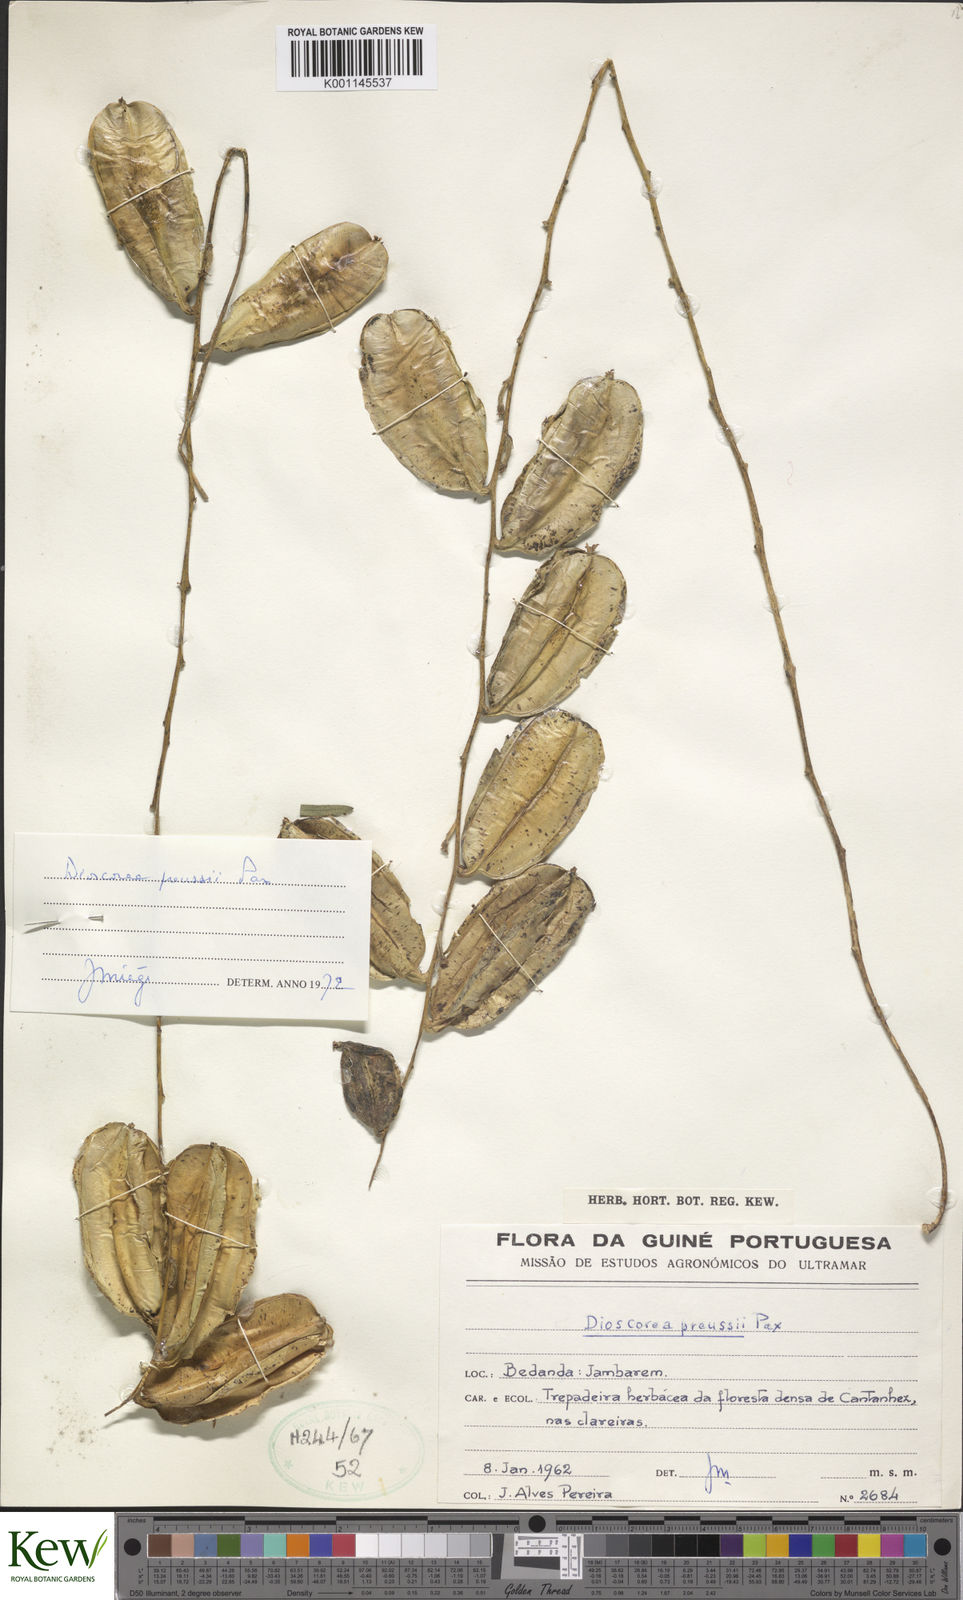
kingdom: Plantae
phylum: Tracheophyta
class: Liliopsida
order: Dioscoreales
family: Dioscoreaceae
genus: Dioscorea
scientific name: Dioscorea preussii
